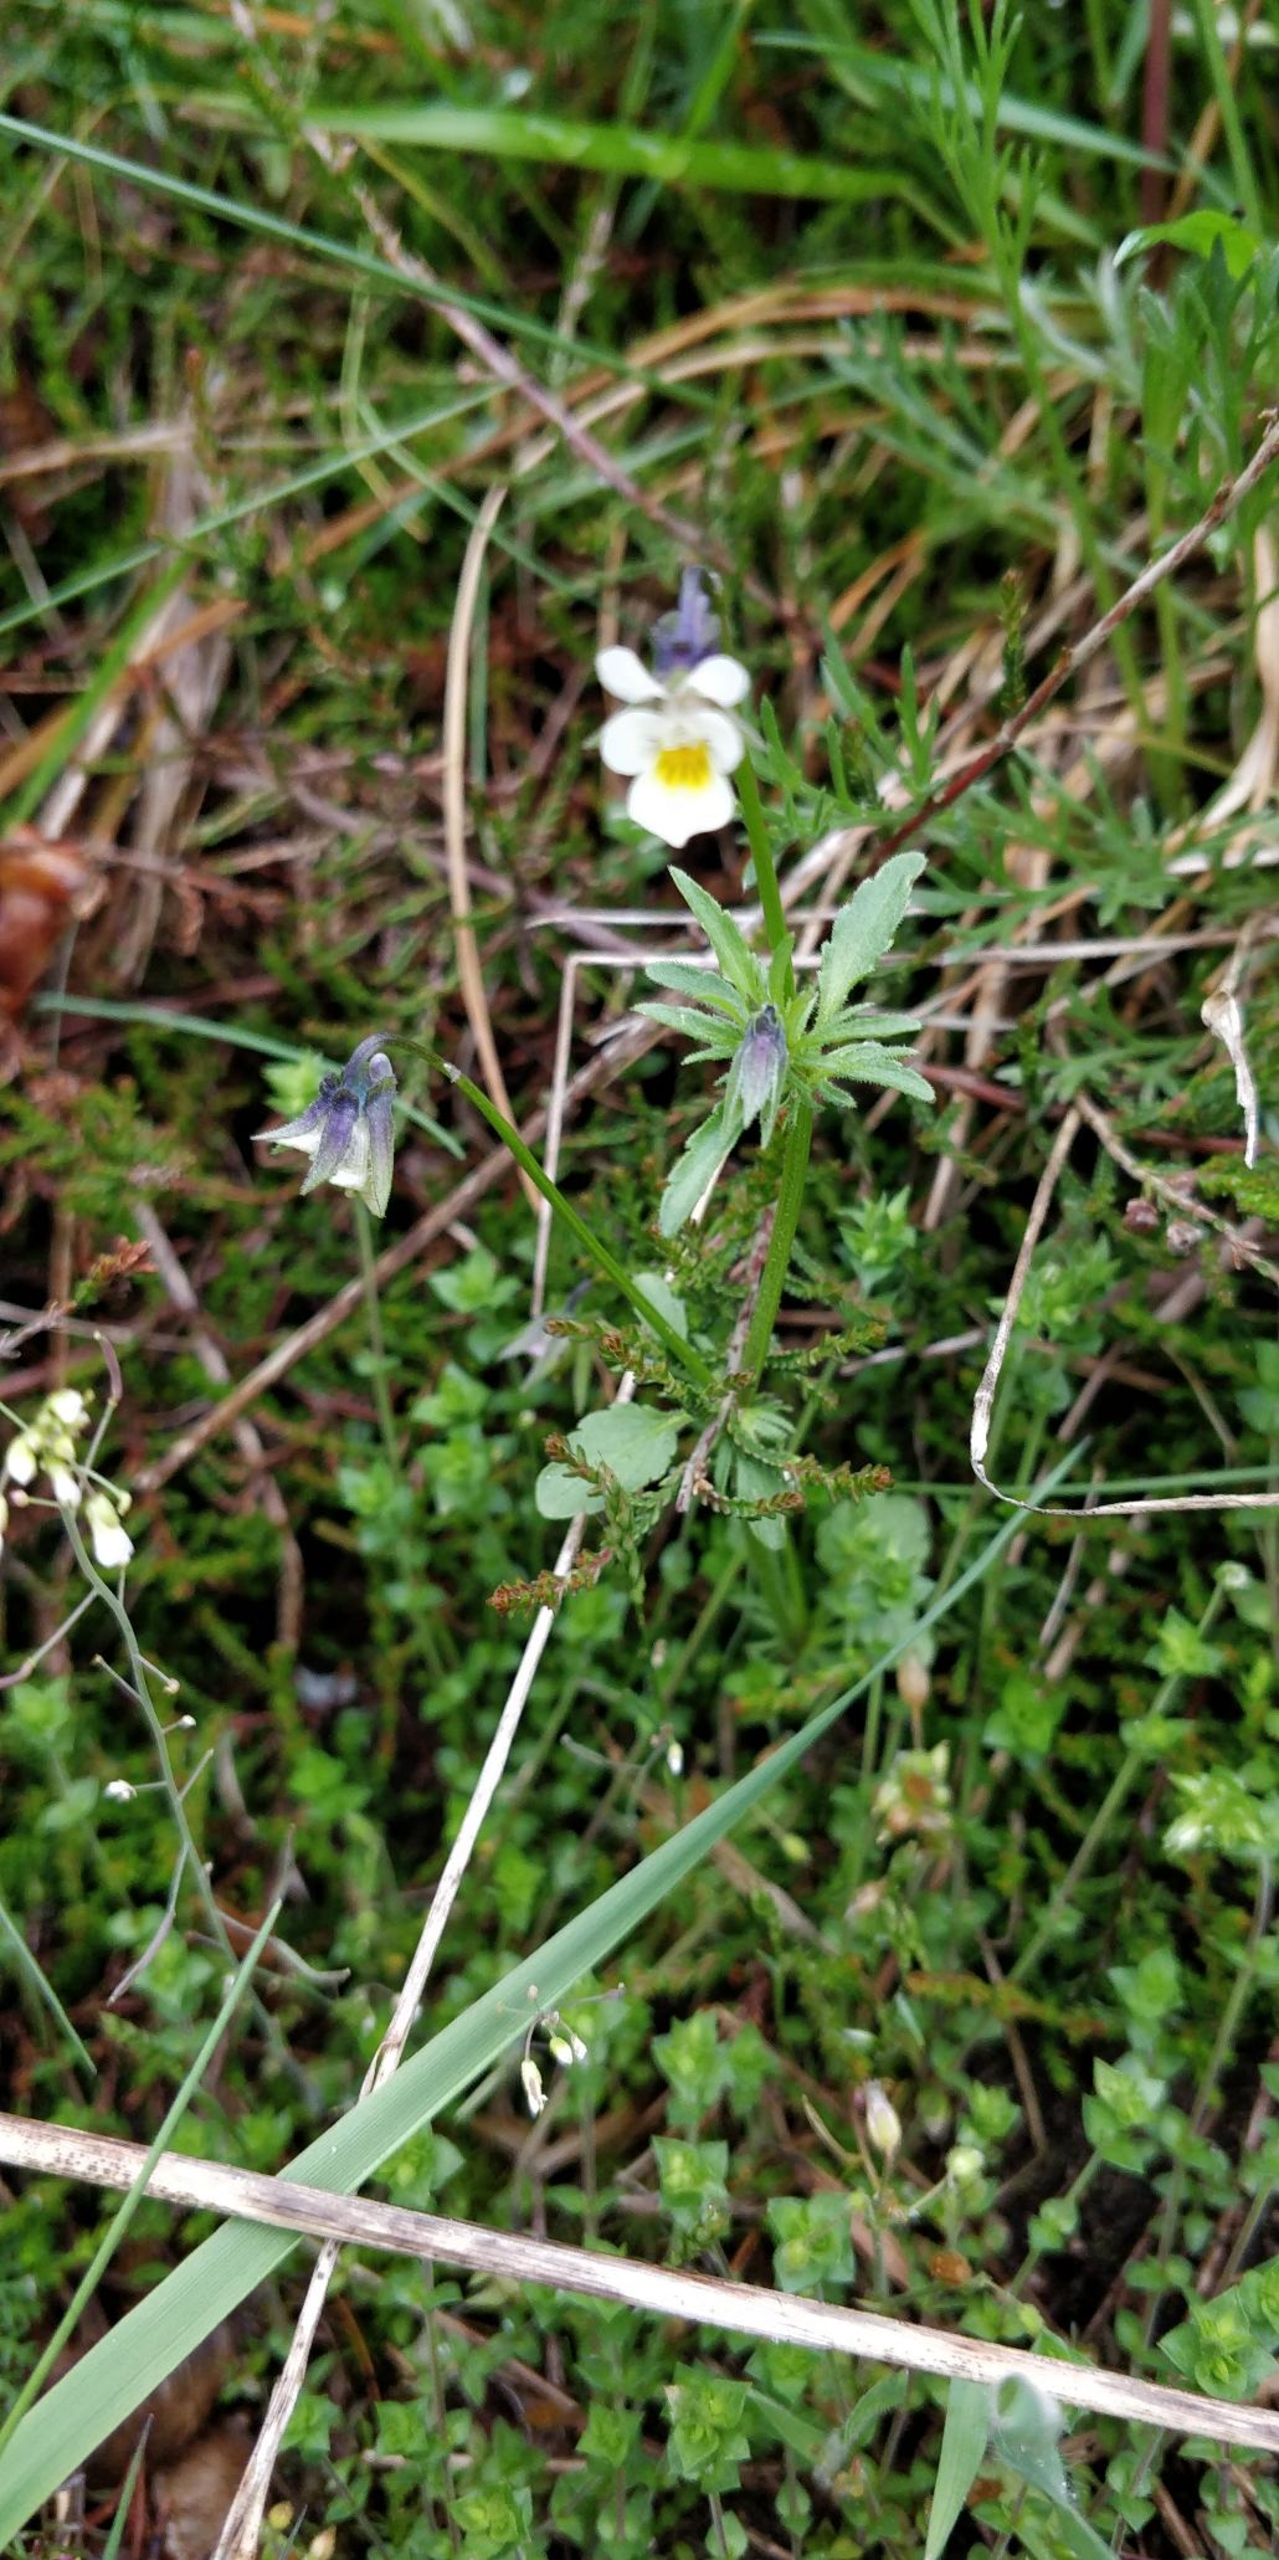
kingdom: Plantae
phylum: Tracheophyta
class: Magnoliopsida
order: Malpighiales
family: Violaceae
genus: Viola
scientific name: Viola arvensis
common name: Ager-stedmoderblomst
